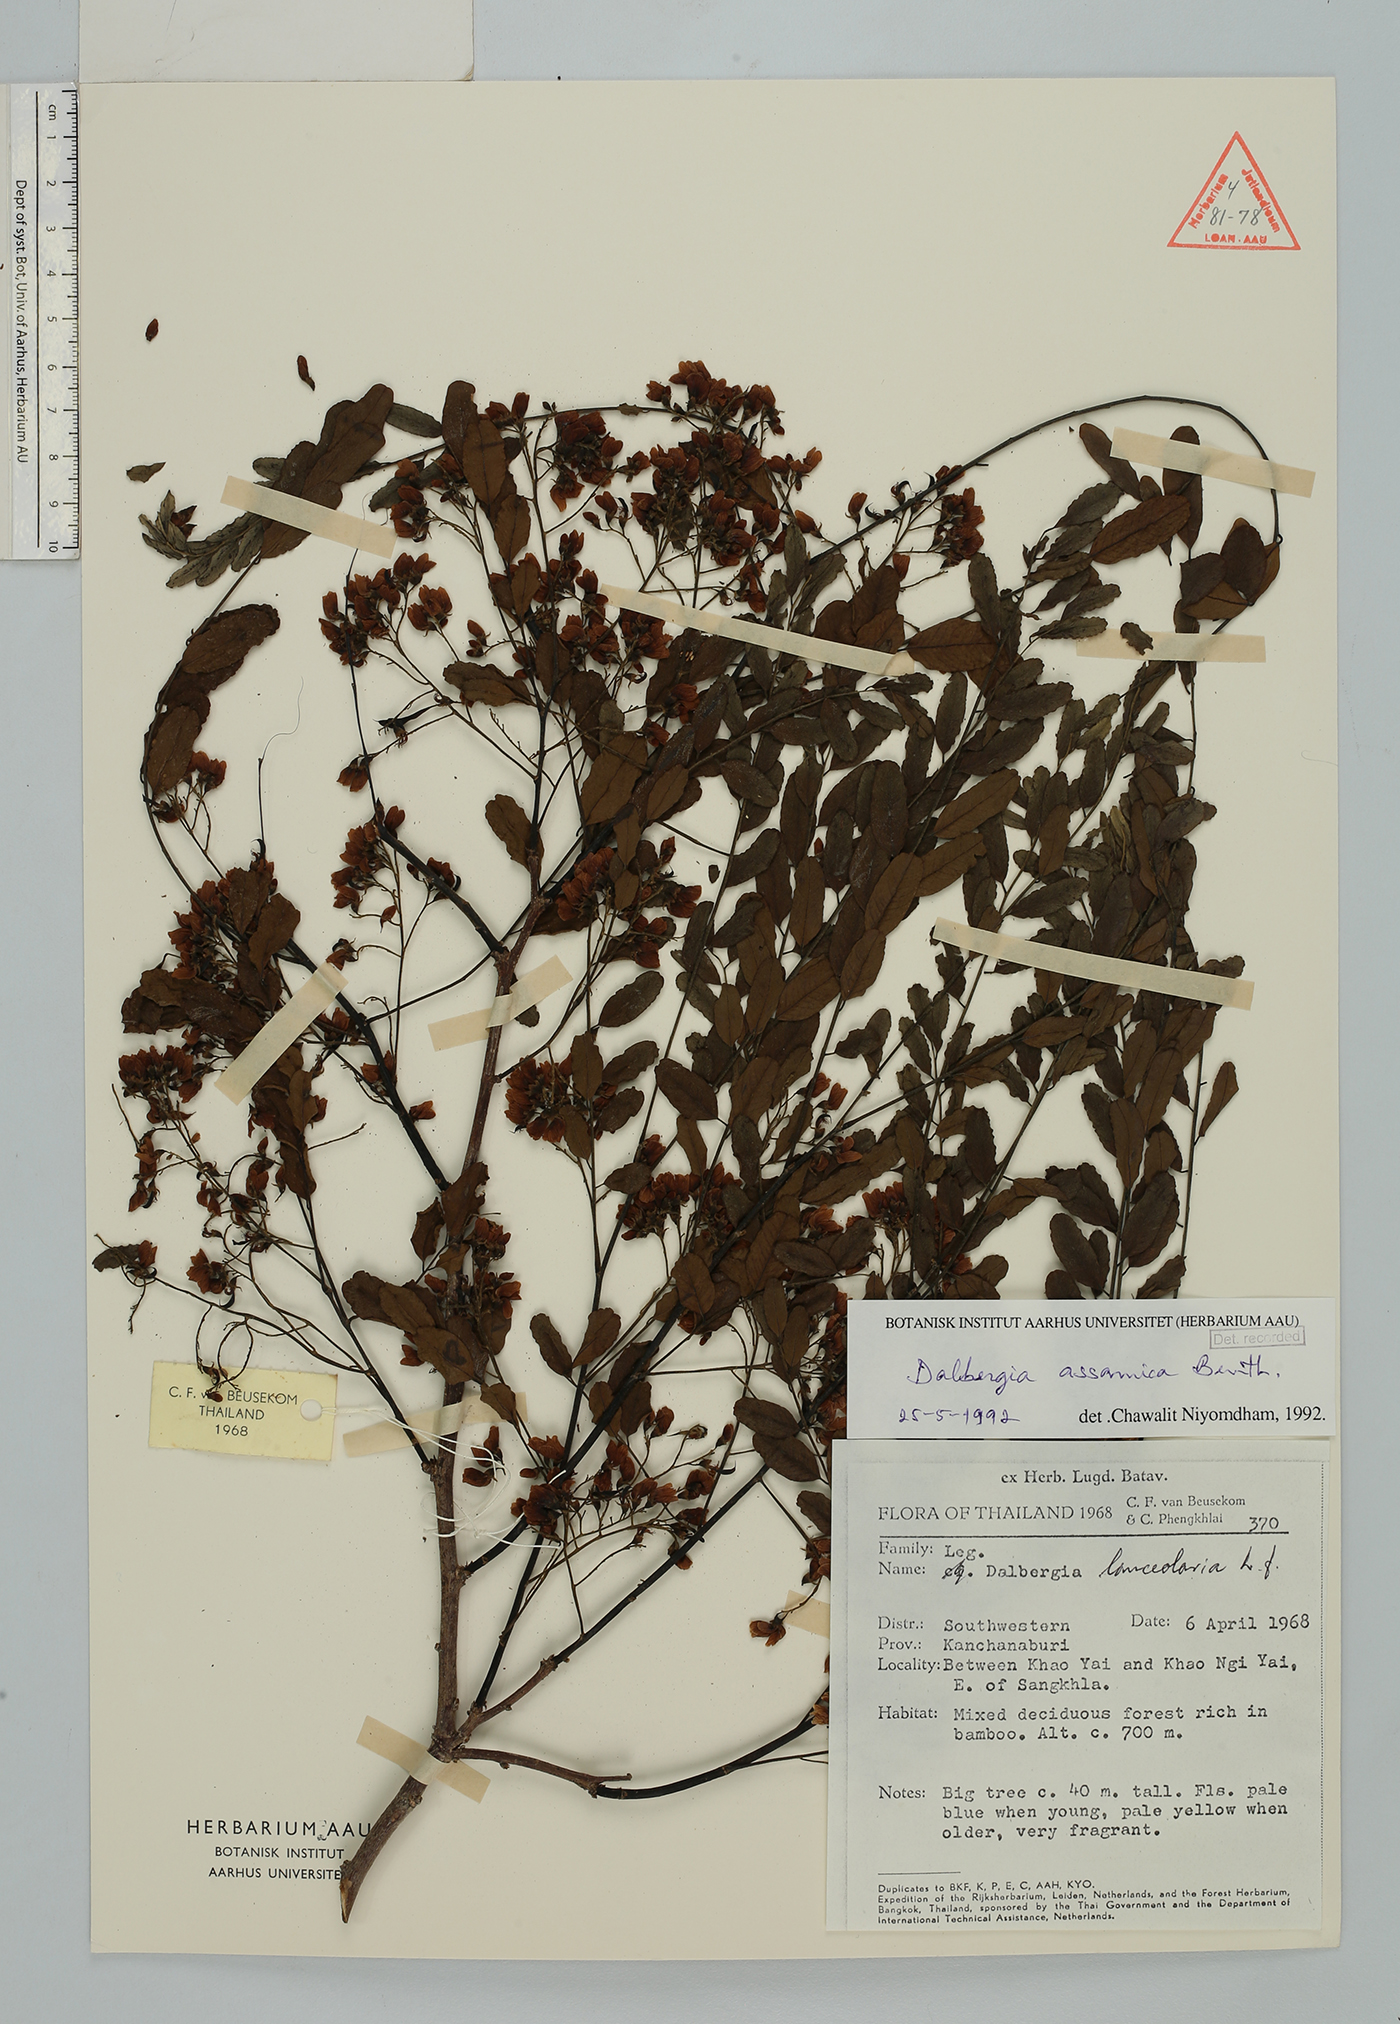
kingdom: Plantae
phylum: Tracheophyta
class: Magnoliopsida
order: Fabales
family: Fabaceae
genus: Dalbergia
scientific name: Dalbergia assamica
